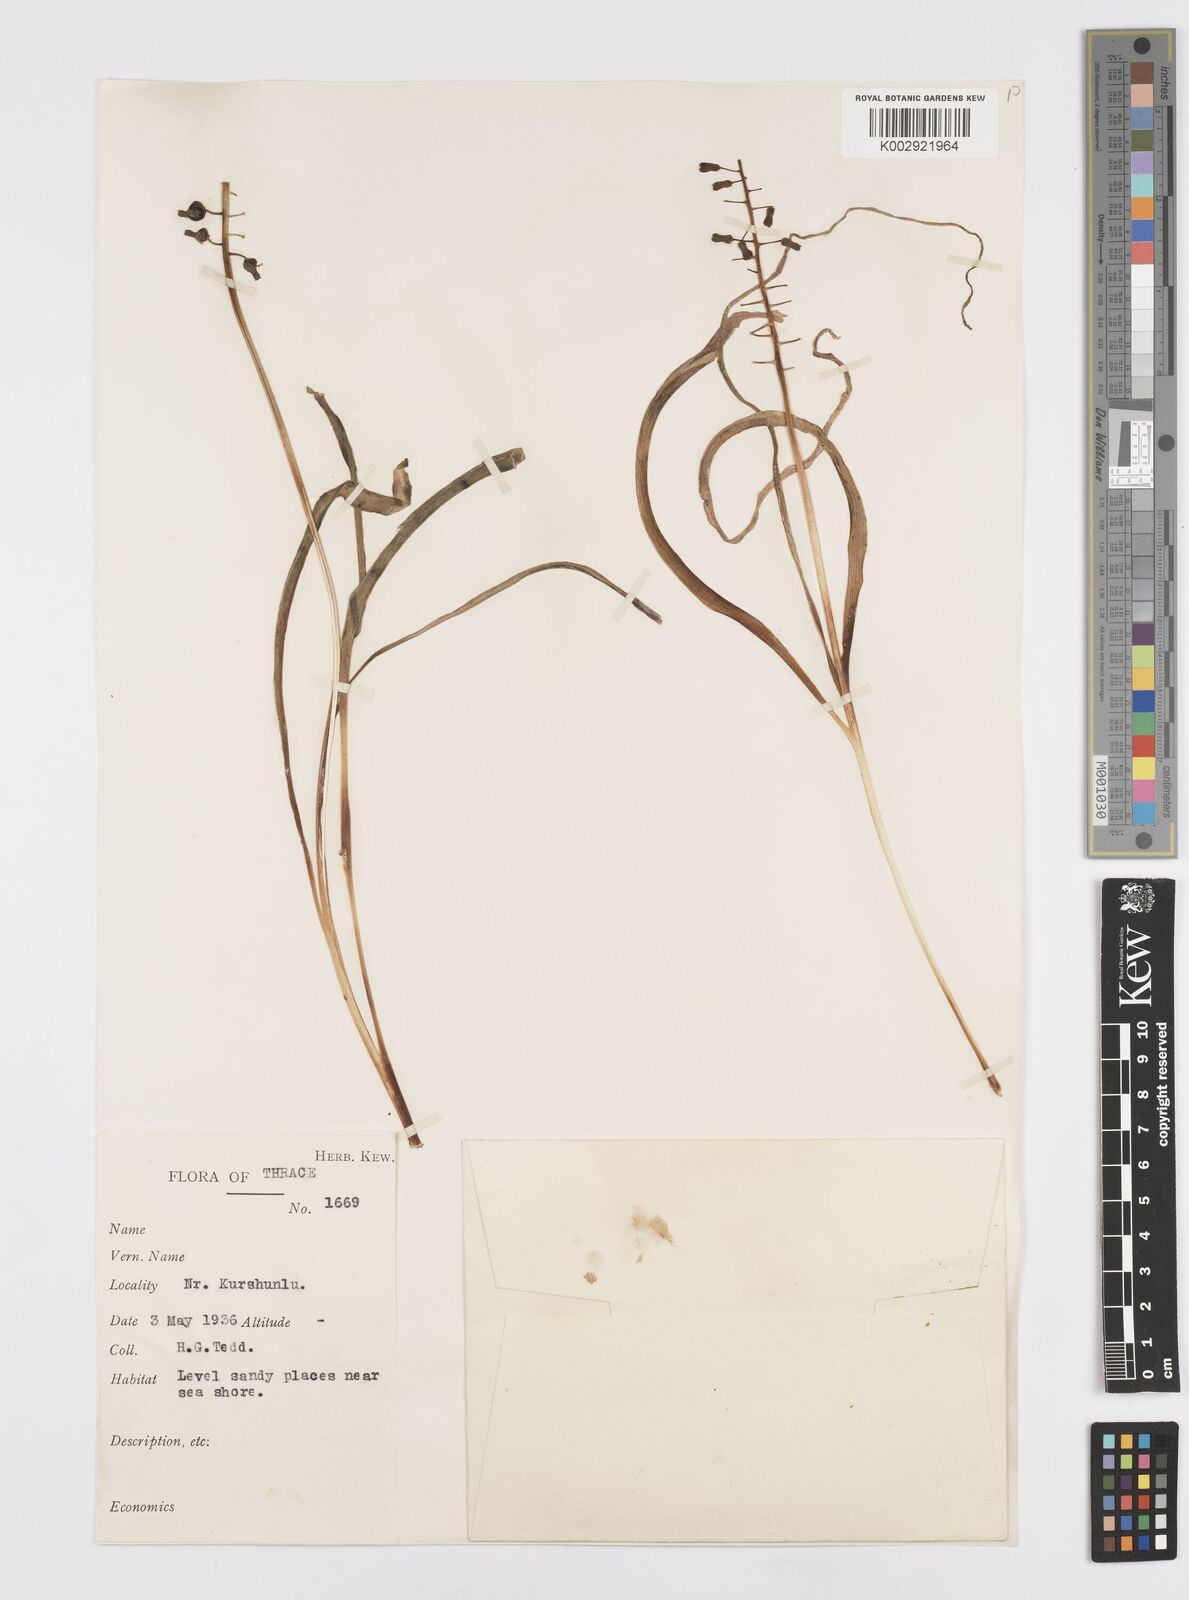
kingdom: Plantae
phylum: Tracheophyta
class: Liliopsida
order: Asparagales
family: Asparagaceae
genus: Muscari
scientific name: Muscari comosum
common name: Tassel hyacinth
